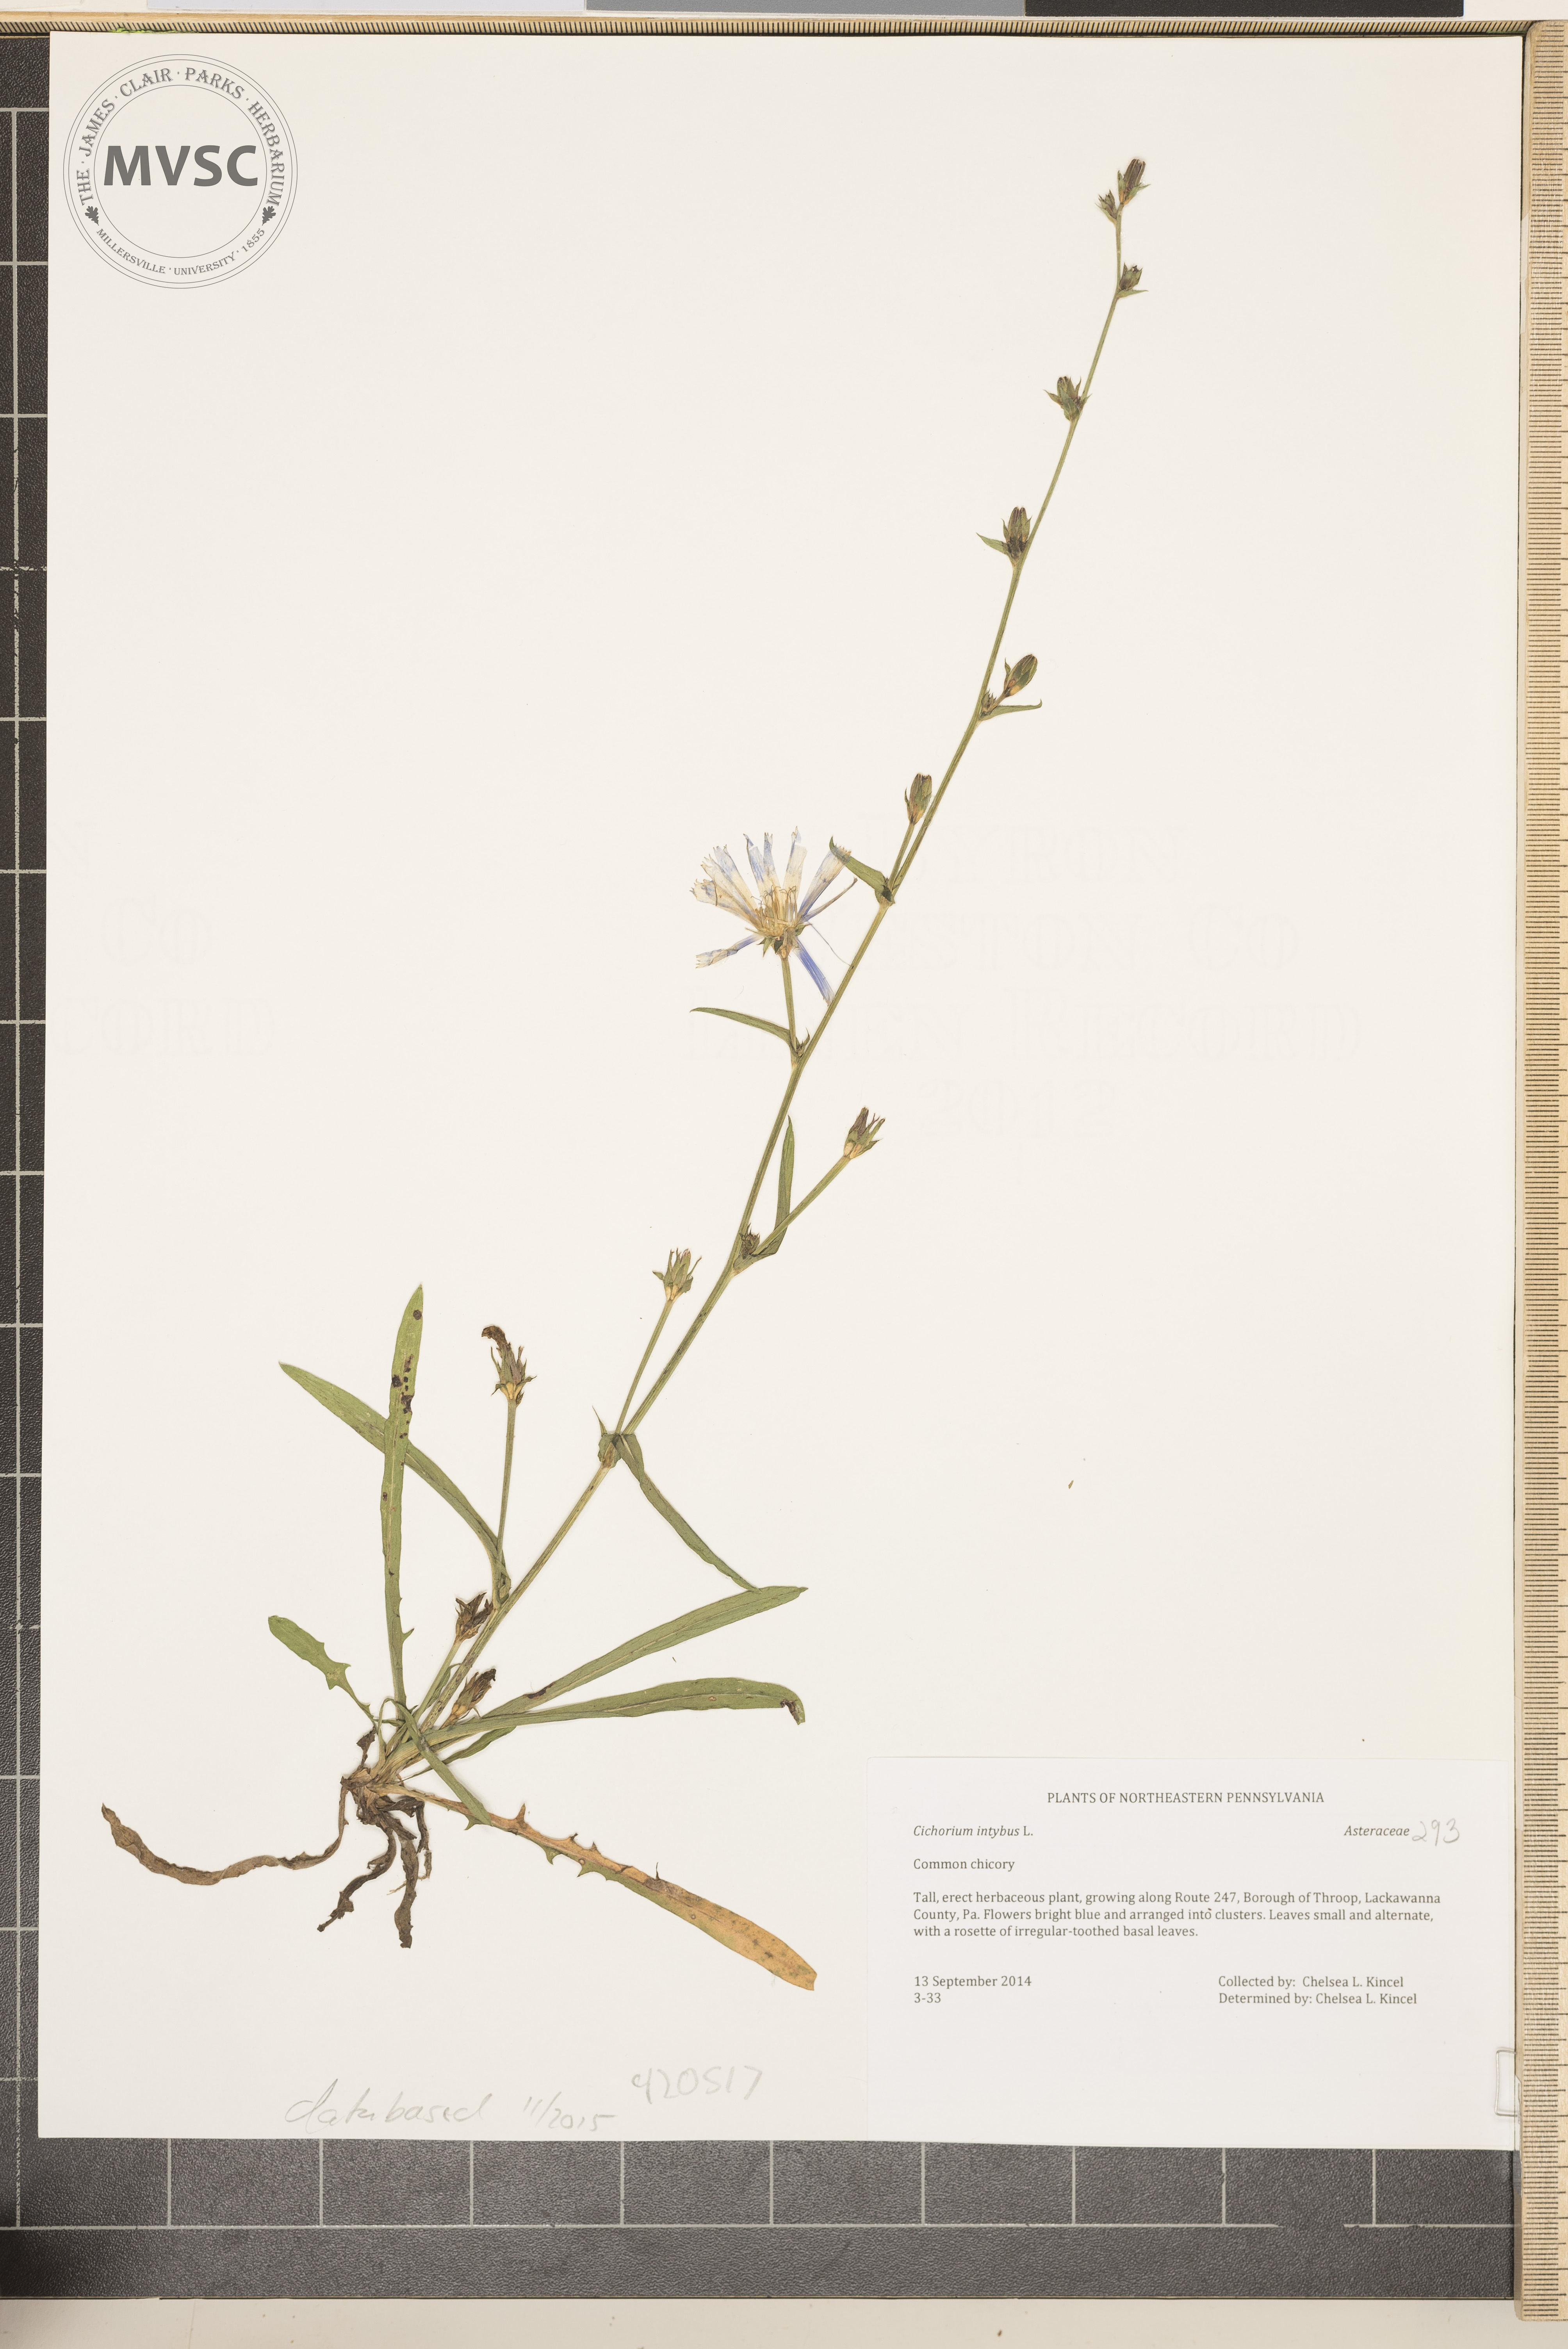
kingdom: Plantae
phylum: Tracheophyta
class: Magnoliopsida
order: Asterales
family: Asteraceae
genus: Cichorium
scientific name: Cichorium intybus
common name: Chicory
